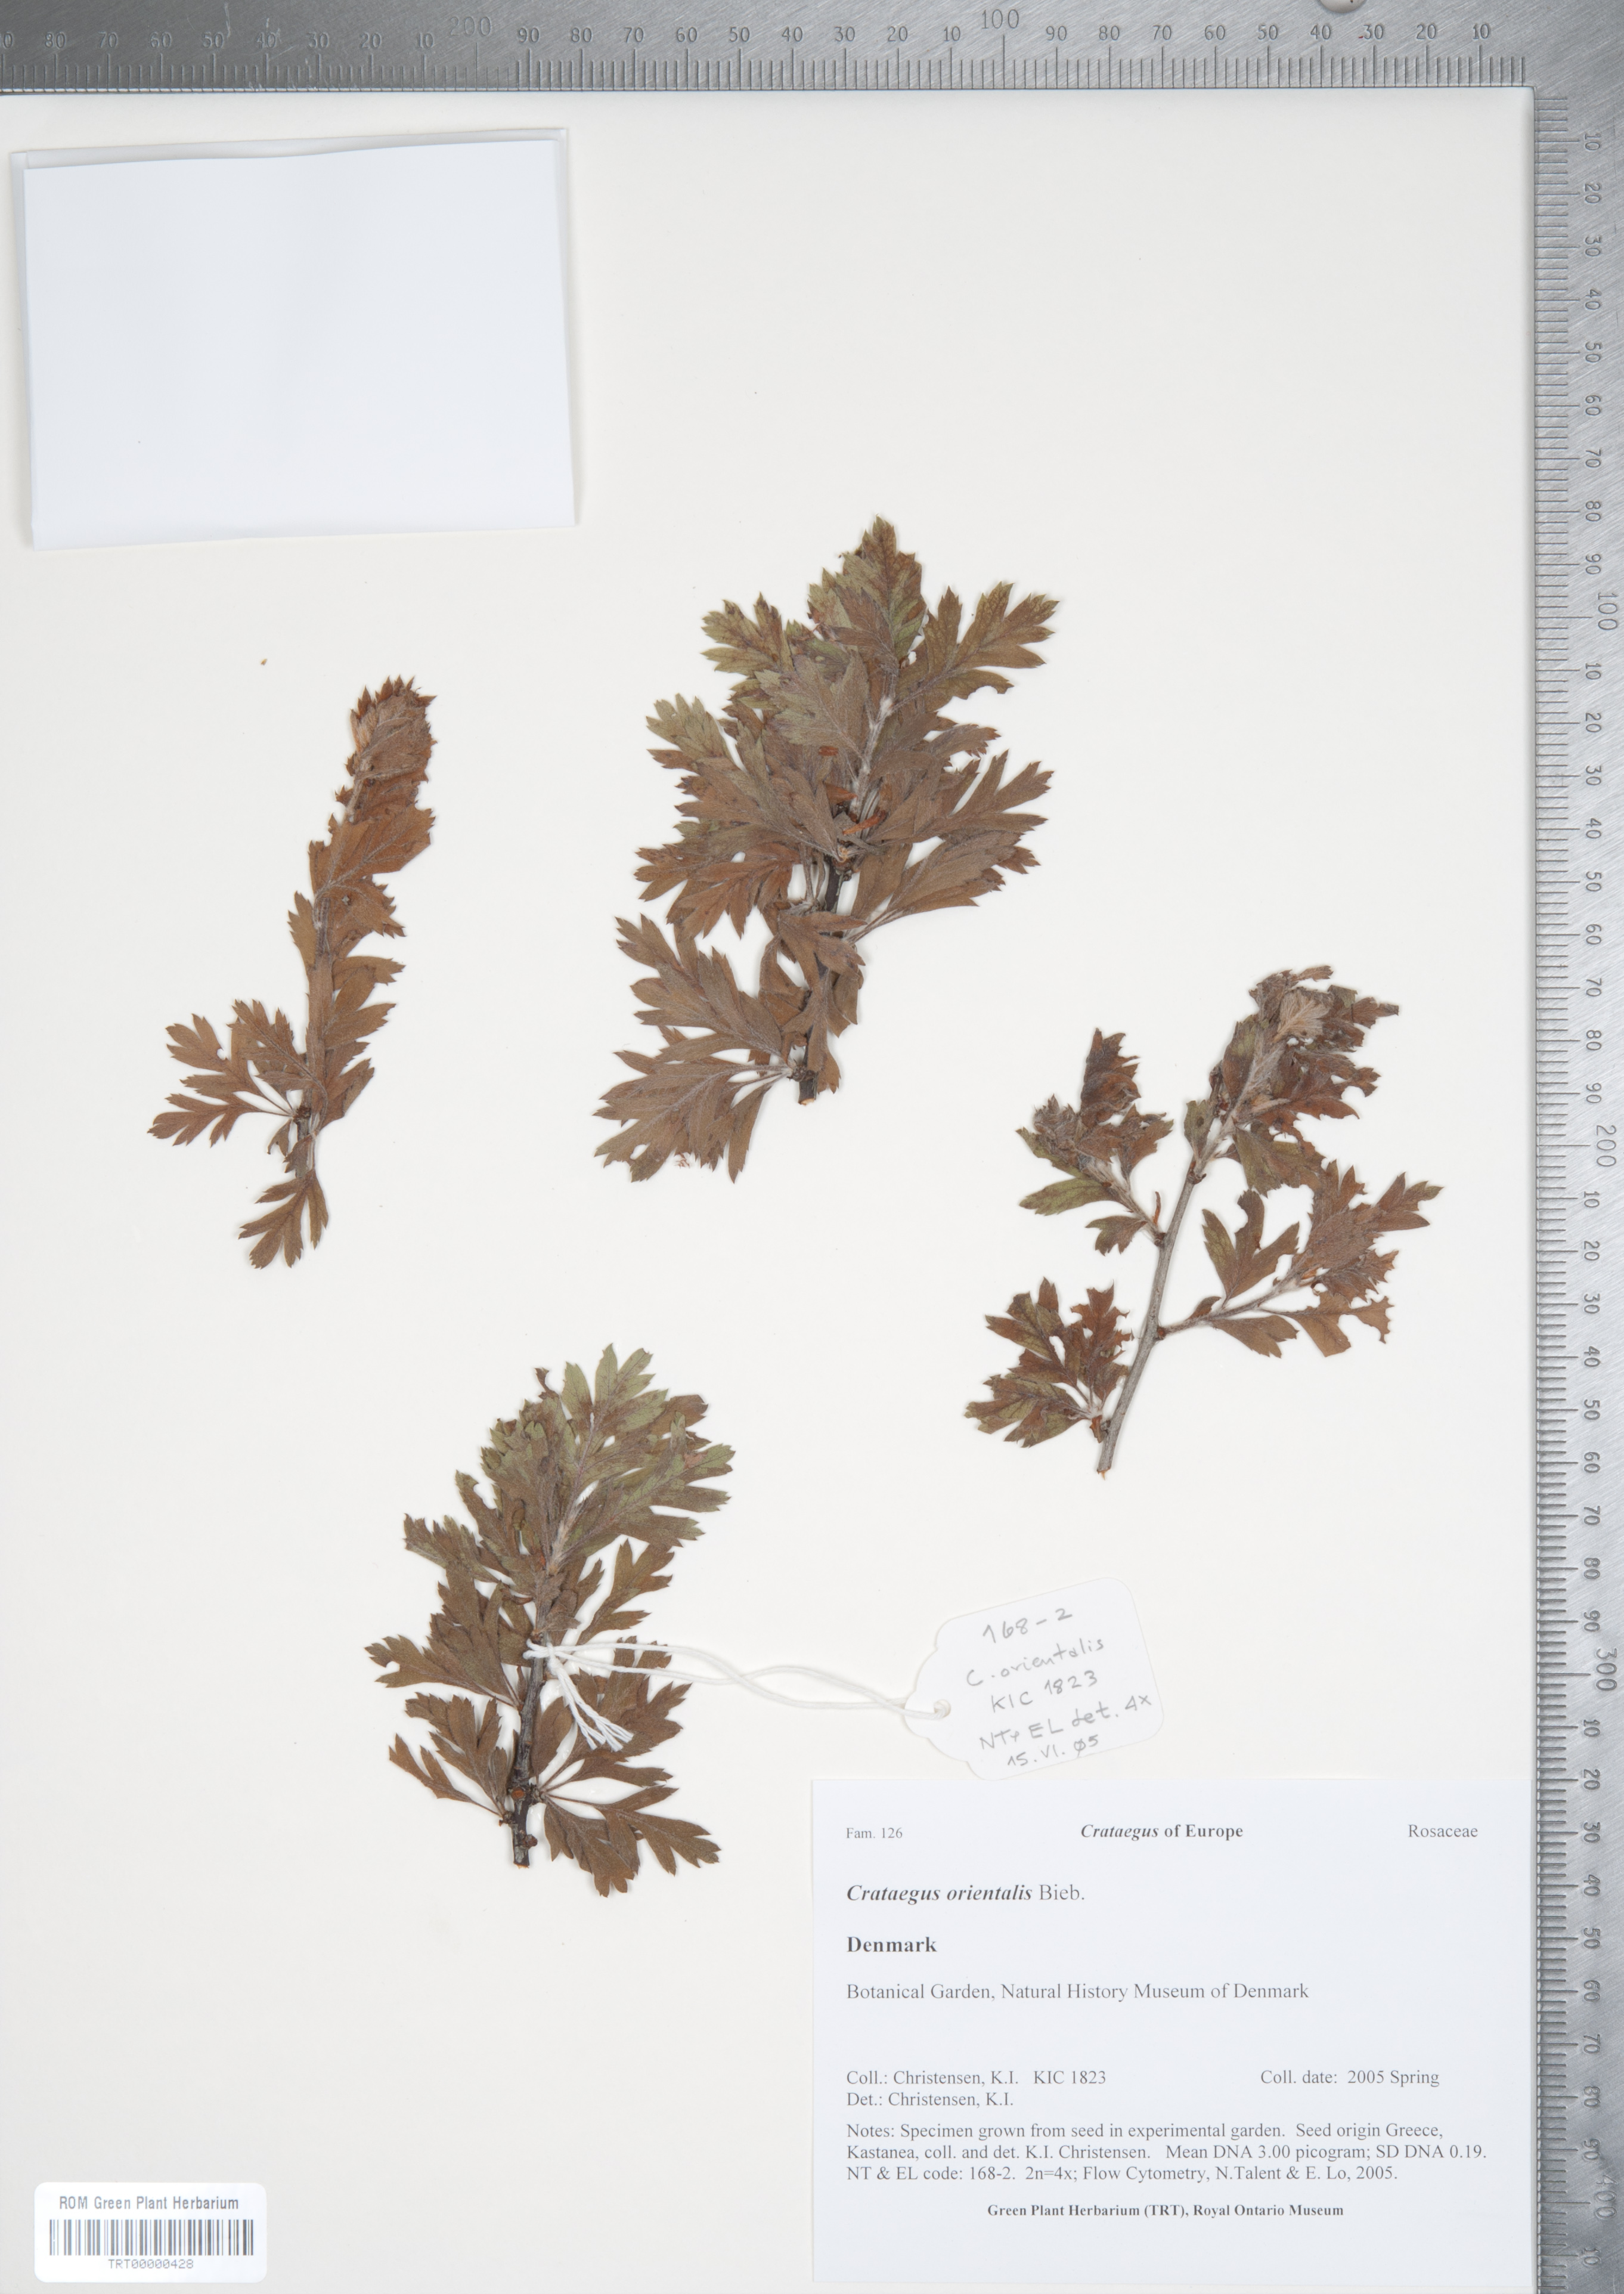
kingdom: Plantae
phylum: Tracheophyta
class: Magnoliopsida
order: Rosales
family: Rosaceae
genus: Crataegus
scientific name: Crataegus orientalis
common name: Oriental hawthorn
